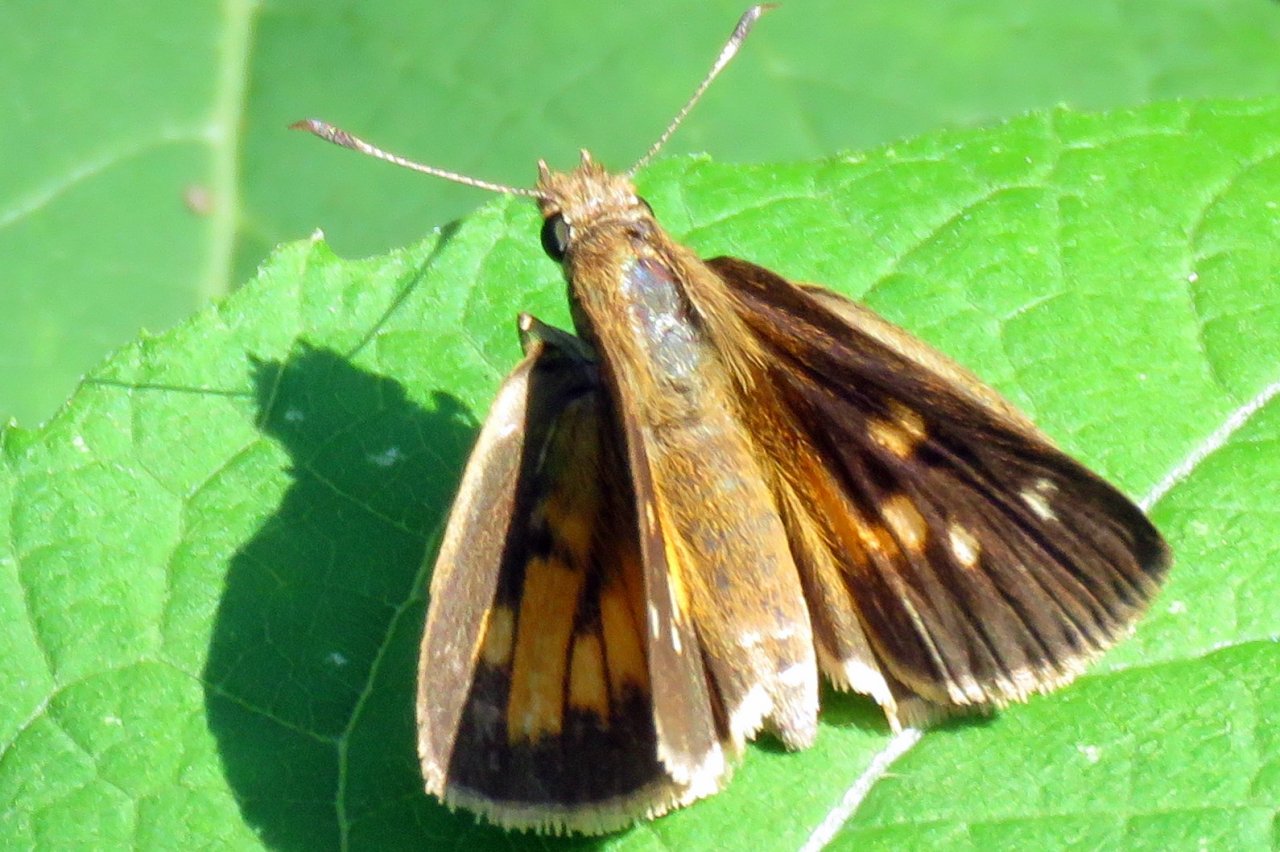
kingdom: Animalia
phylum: Arthropoda
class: Insecta
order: Lepidoptera
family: Hesperiidae
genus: Poanes
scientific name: Poanes viator
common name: Broad-winged Skipper
